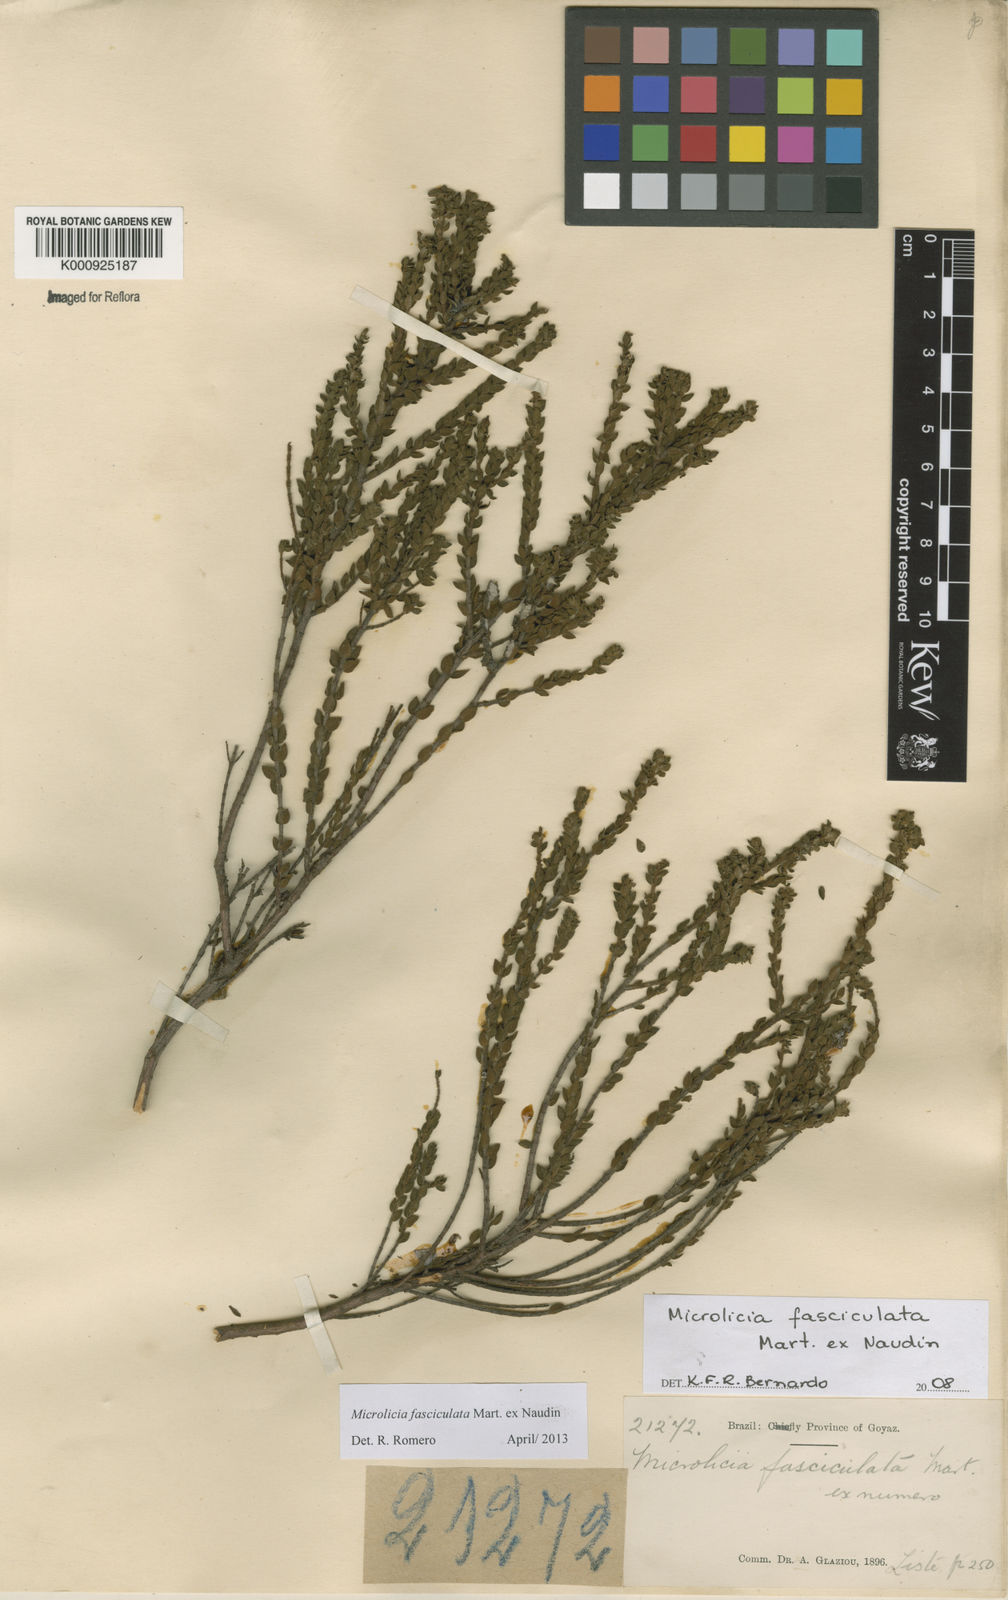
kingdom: Plantae
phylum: Tracheophyta
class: Magnoliopsida
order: Myrtales
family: Melastomataceae
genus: Microlicia
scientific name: Microlicia fasciculata
